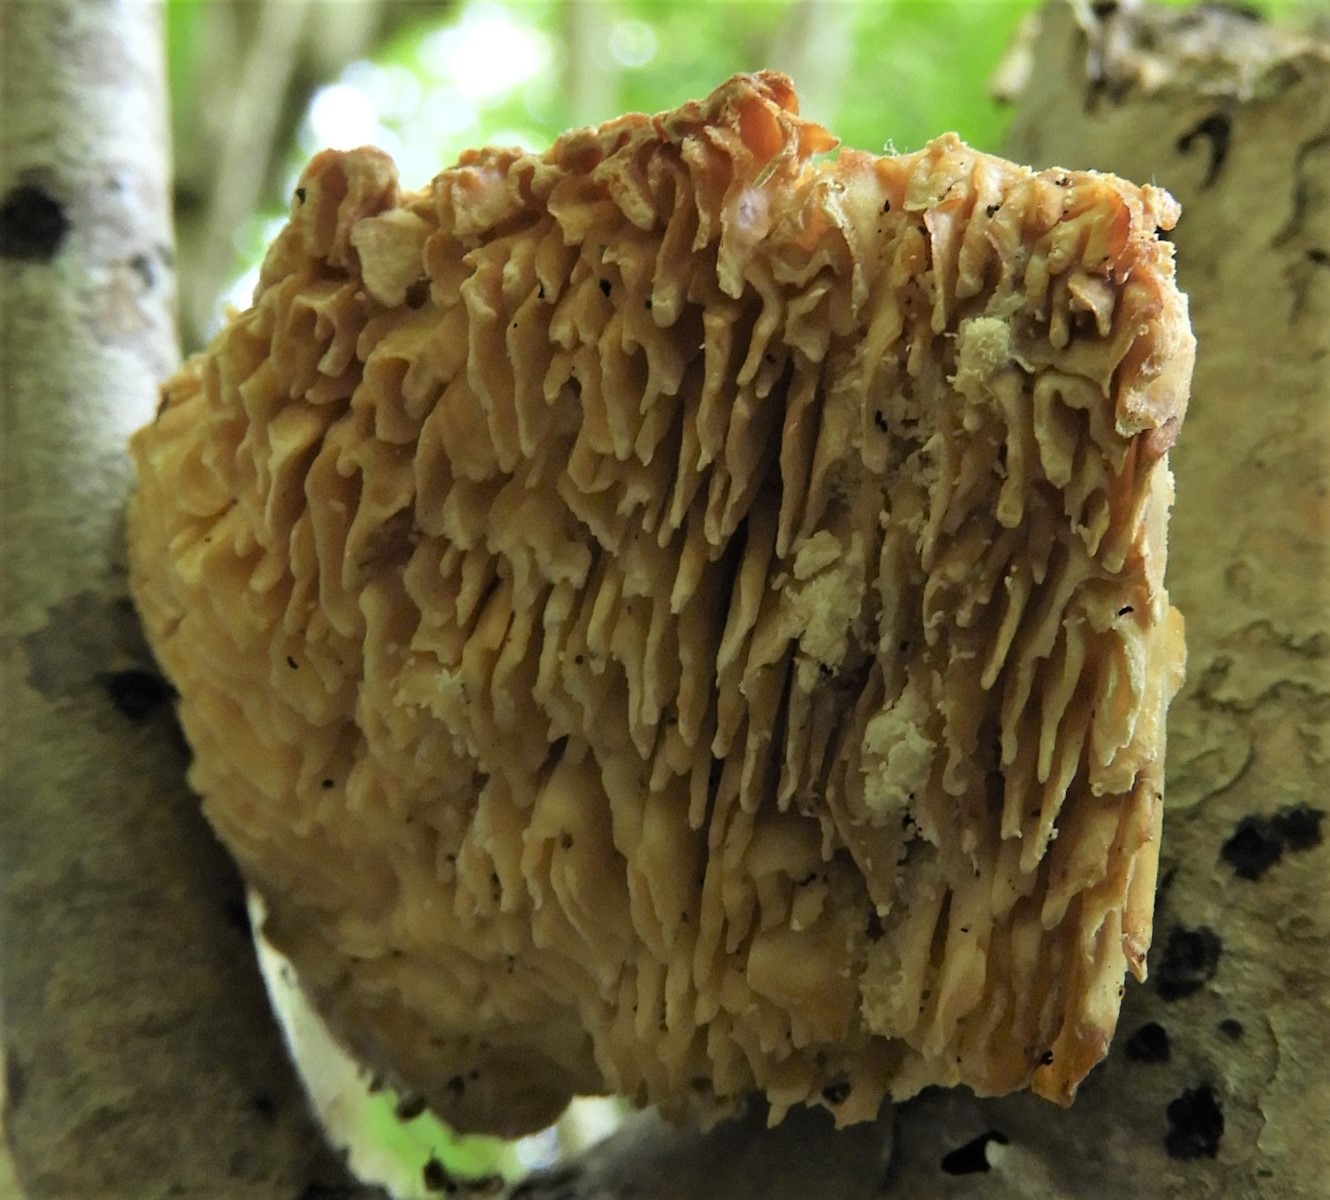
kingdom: Fungi
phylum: Basidiomycota
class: Agaricomycetes
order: Polyporales
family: Polyporaceae
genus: Lenzites
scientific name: Lenzites betulinus
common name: birke-læderporesvamp
